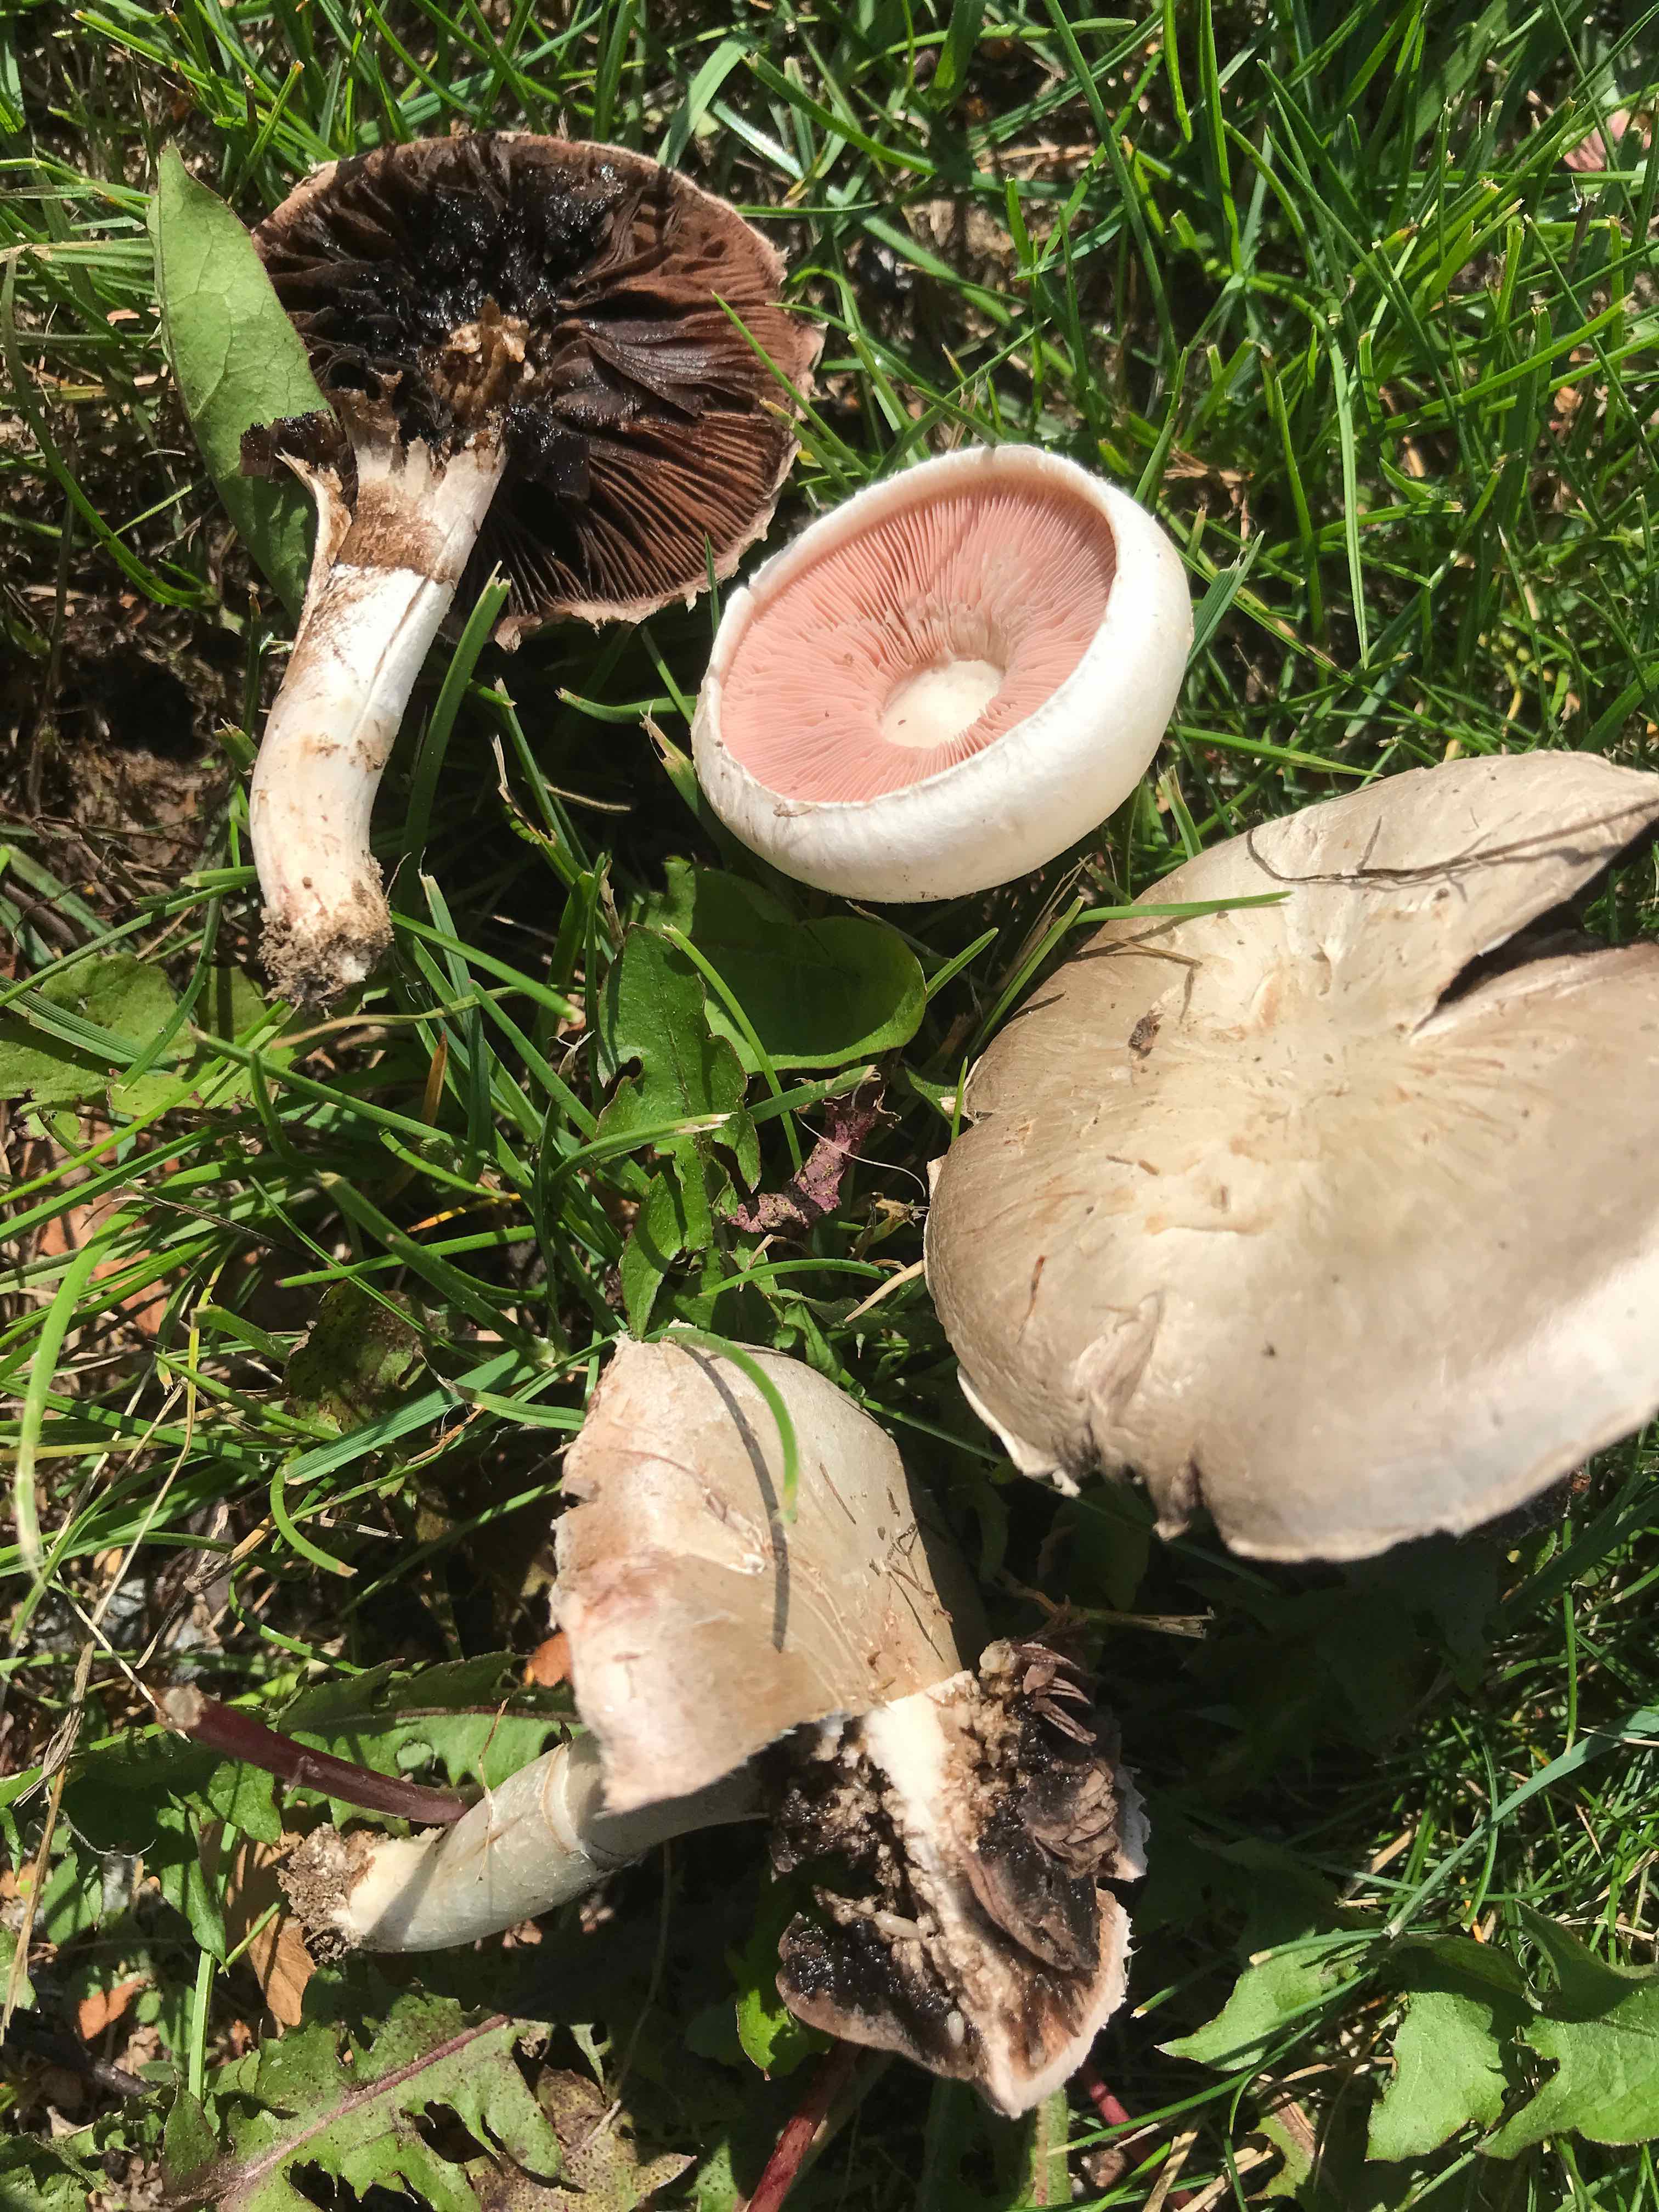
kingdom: Fungi
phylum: Basidiomycota
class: Agaricomycetes
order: Agaricales
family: Agaricaceae
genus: Agaricus
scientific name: Agaricus
